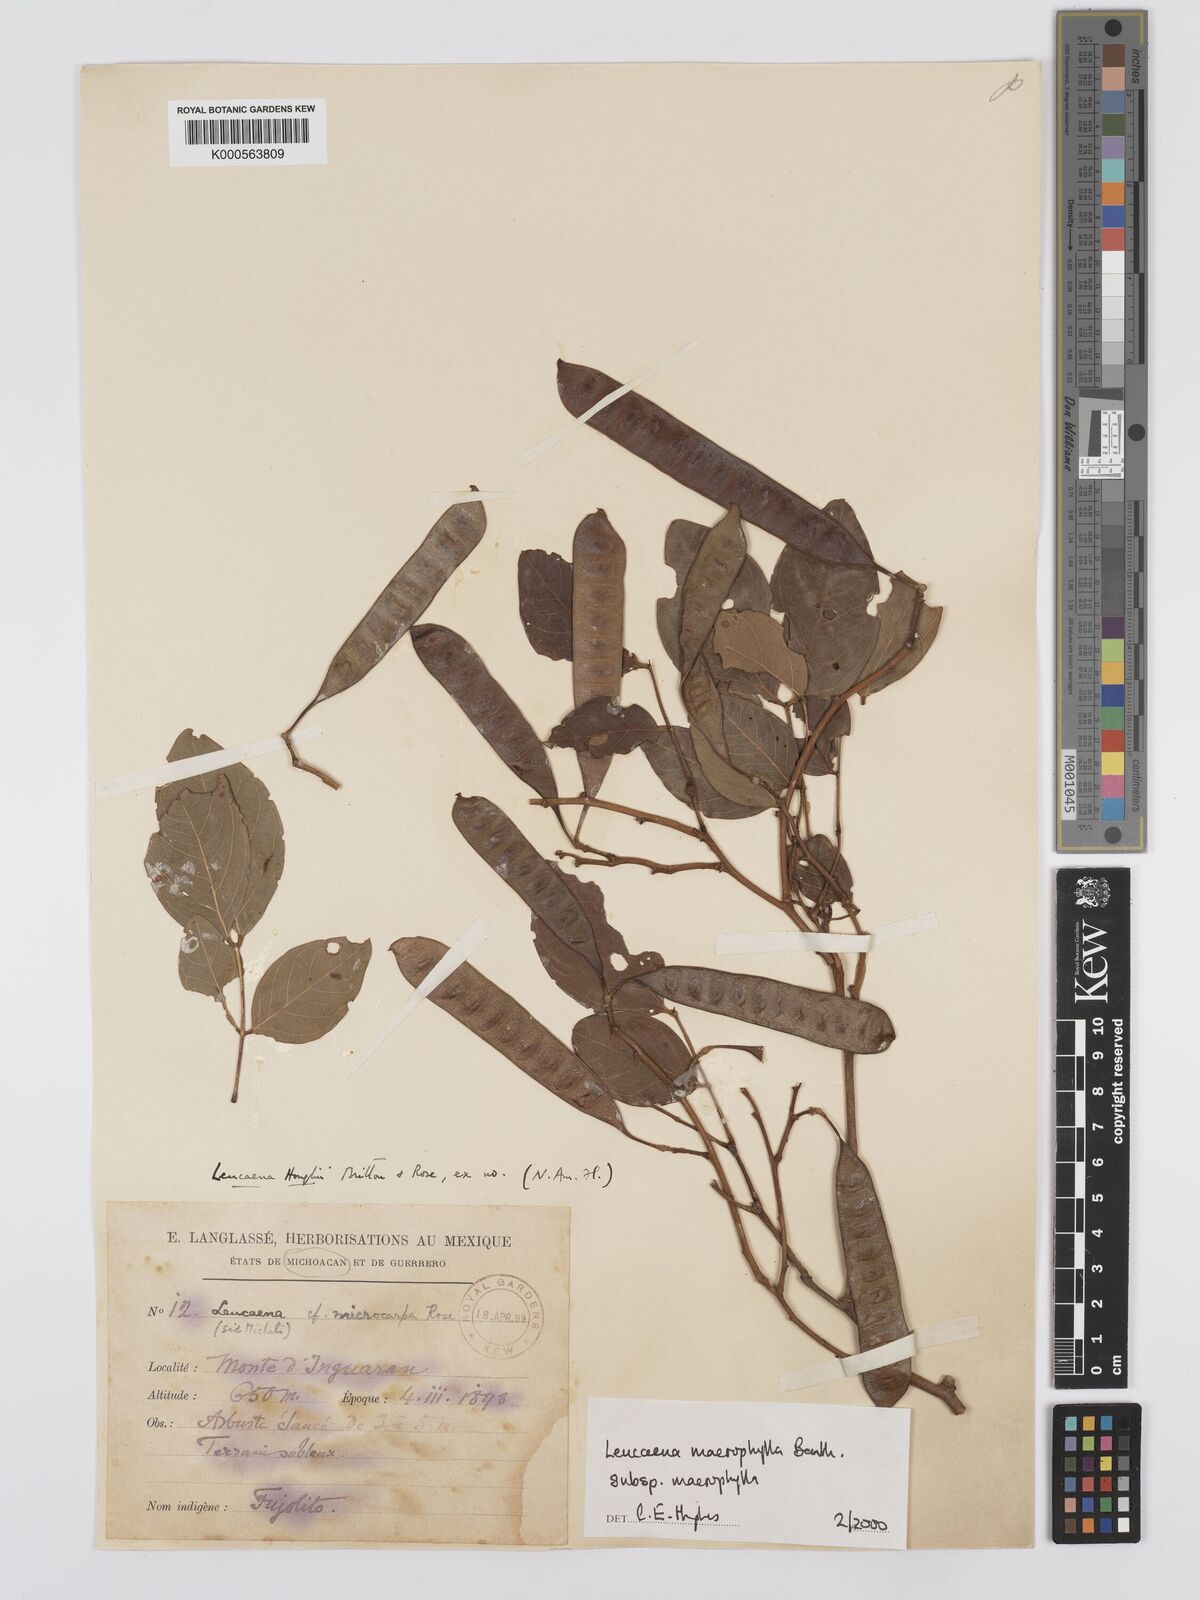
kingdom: Plantae
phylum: Tracheophyta
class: Magnoliopsida
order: Fabales
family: Fabaceae
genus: Leucaena
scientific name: Leucaena macrophylla
